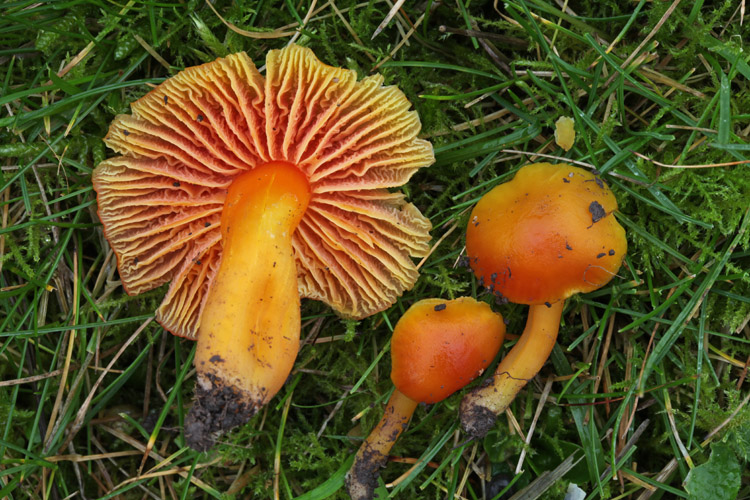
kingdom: Fungi
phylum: Basidiomycota
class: Agaricomycetes
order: Agaricales
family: Hygrophoraceae
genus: Hygrocybe
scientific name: Hygrocybe quieta
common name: tæge-vokshat
